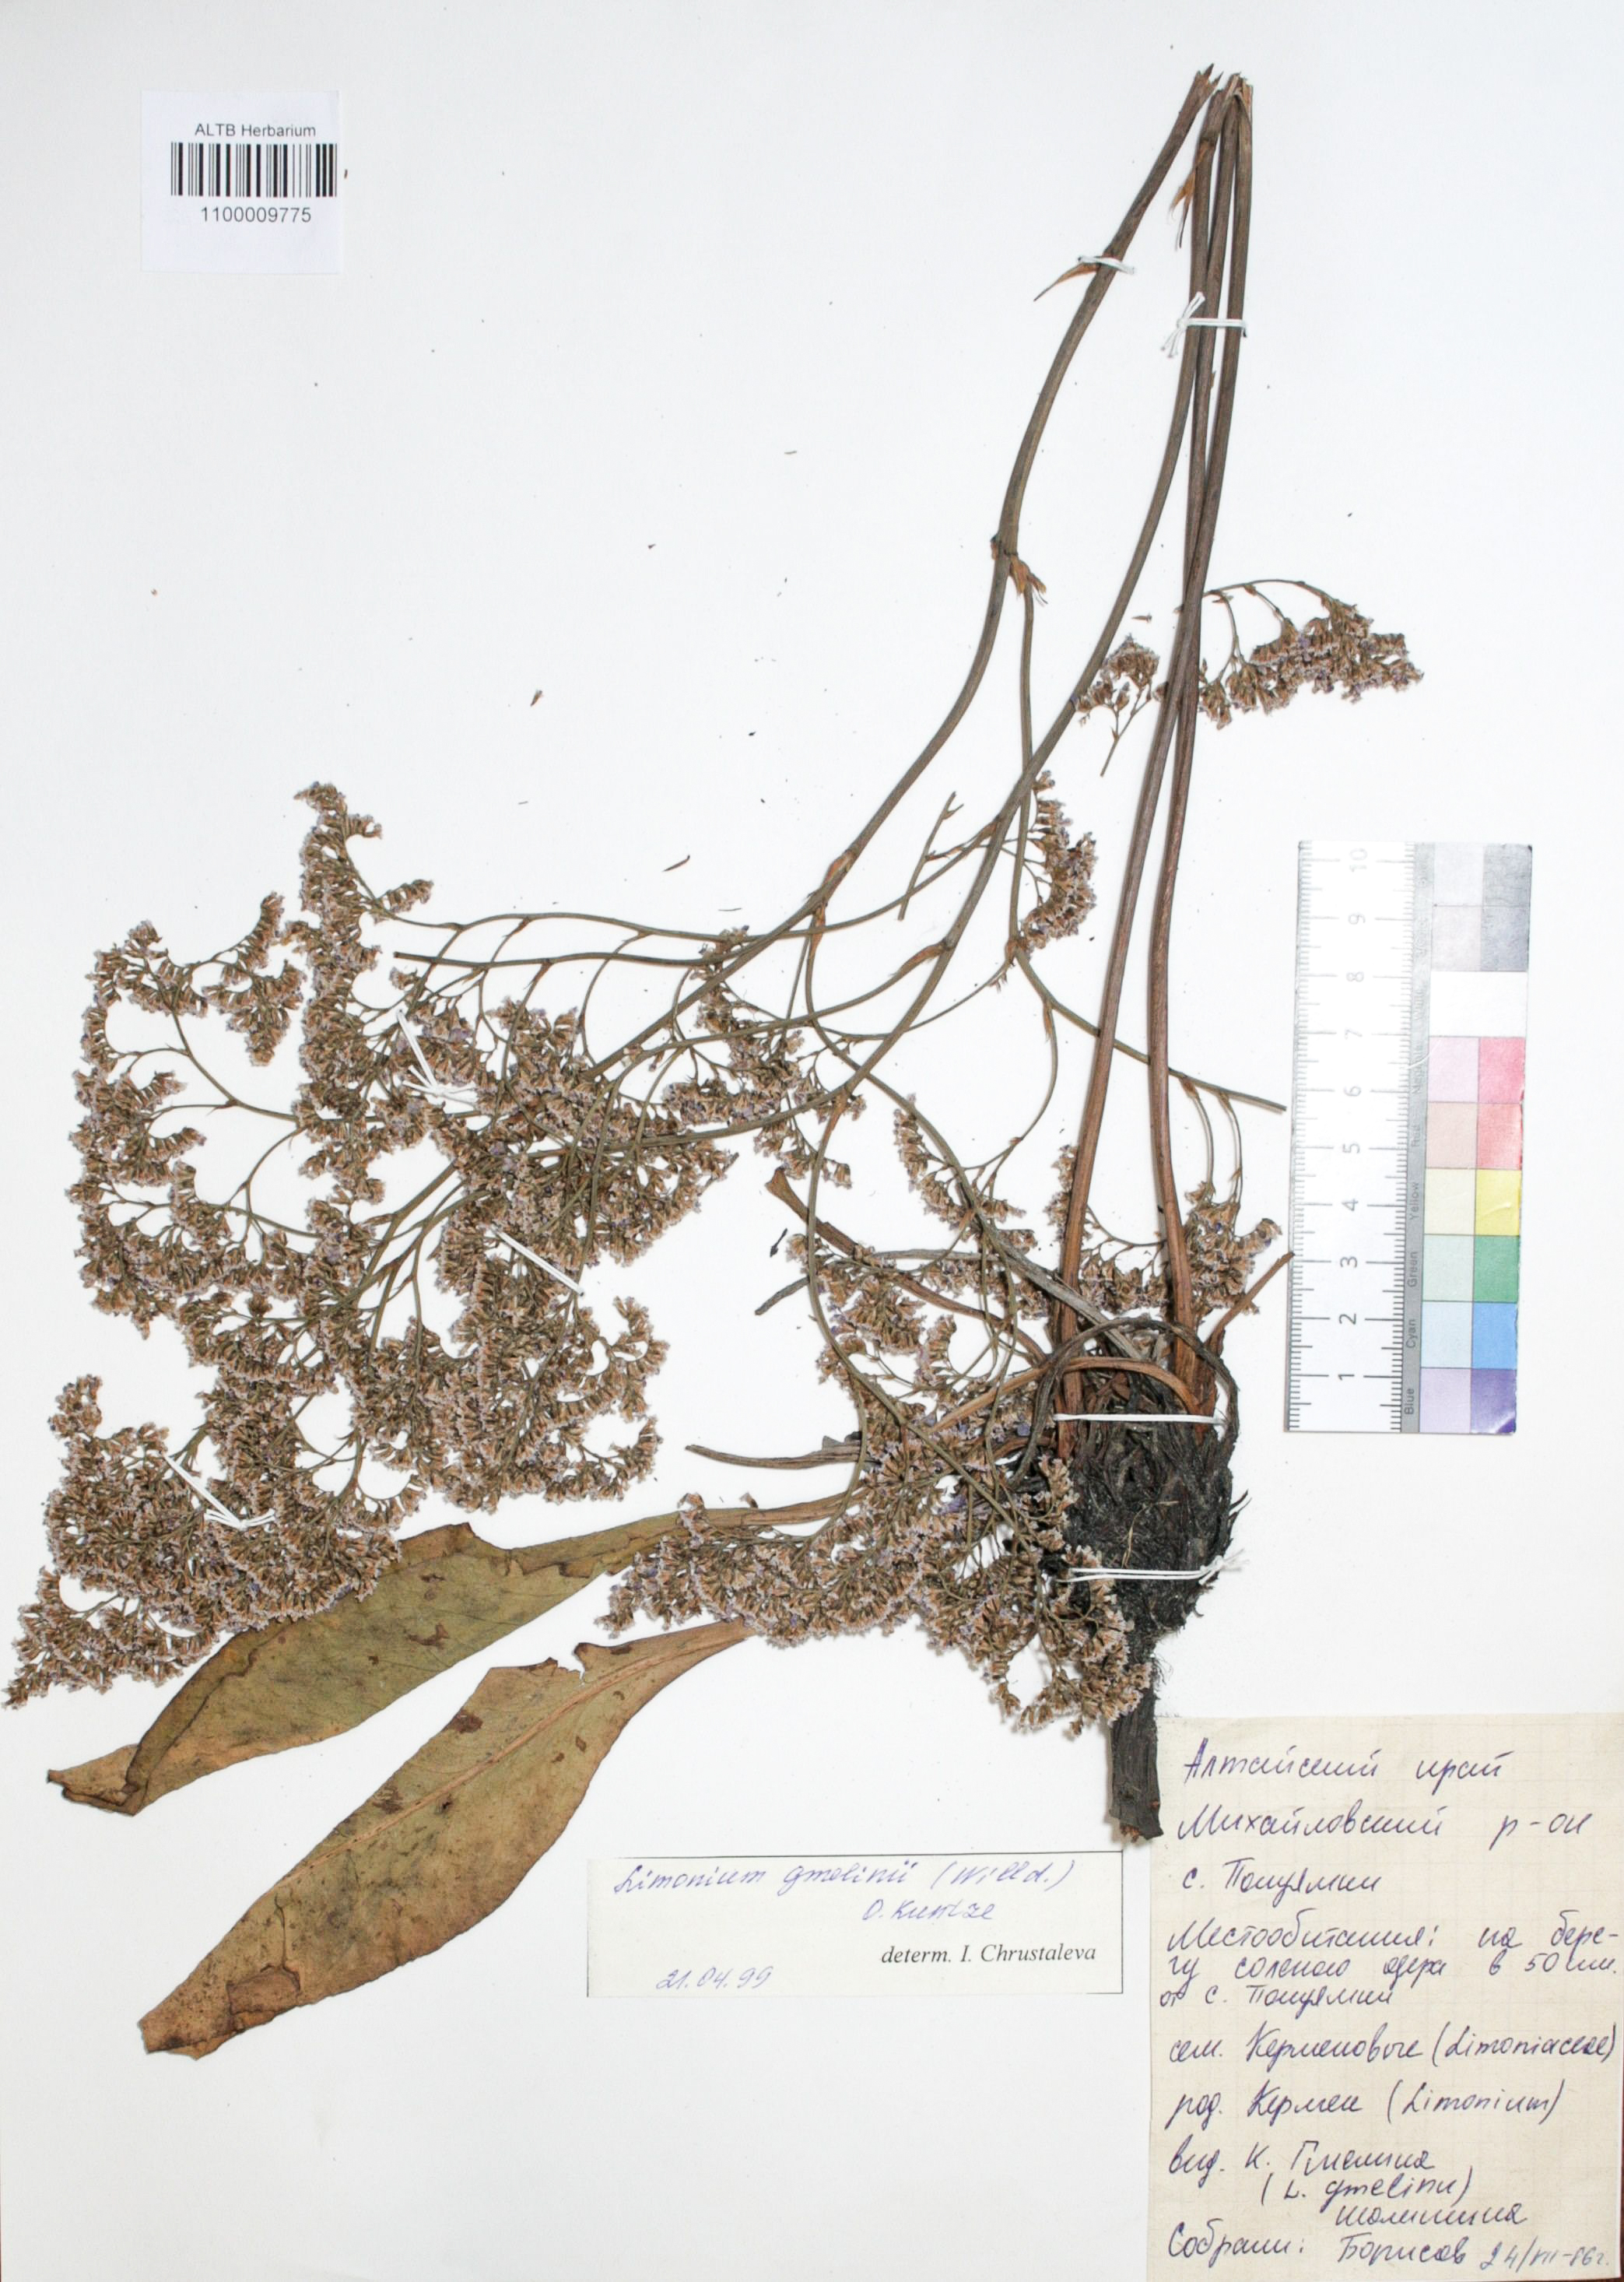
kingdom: Plantae
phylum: Tracheophyta
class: Magnoliopsida
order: Caryophyllales
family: Plumbaginaceae
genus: Limonium
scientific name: Limonium gmelini
